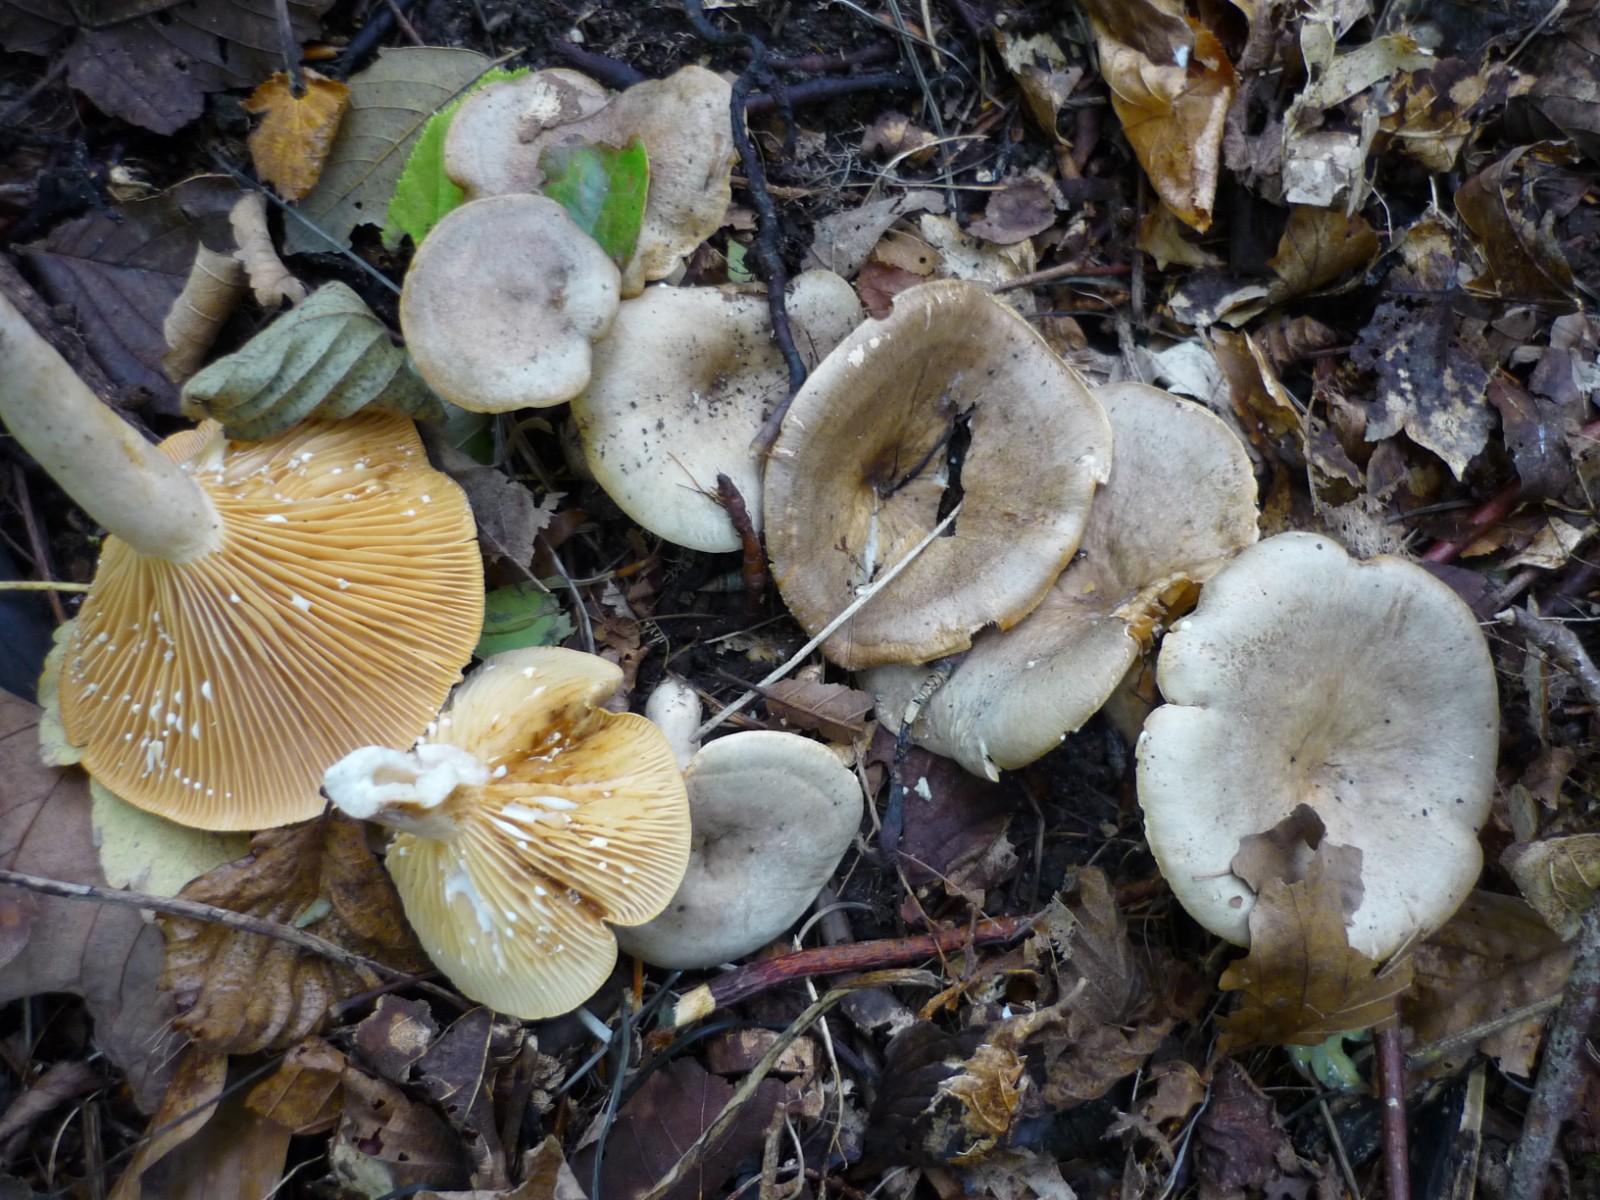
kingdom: Fungi
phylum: Basidiomycota
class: Agaricomycetes
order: Russulales
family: Russulaceae
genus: Lactarius
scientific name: Lactarius pyrogalus
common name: hassel-mælkehat
